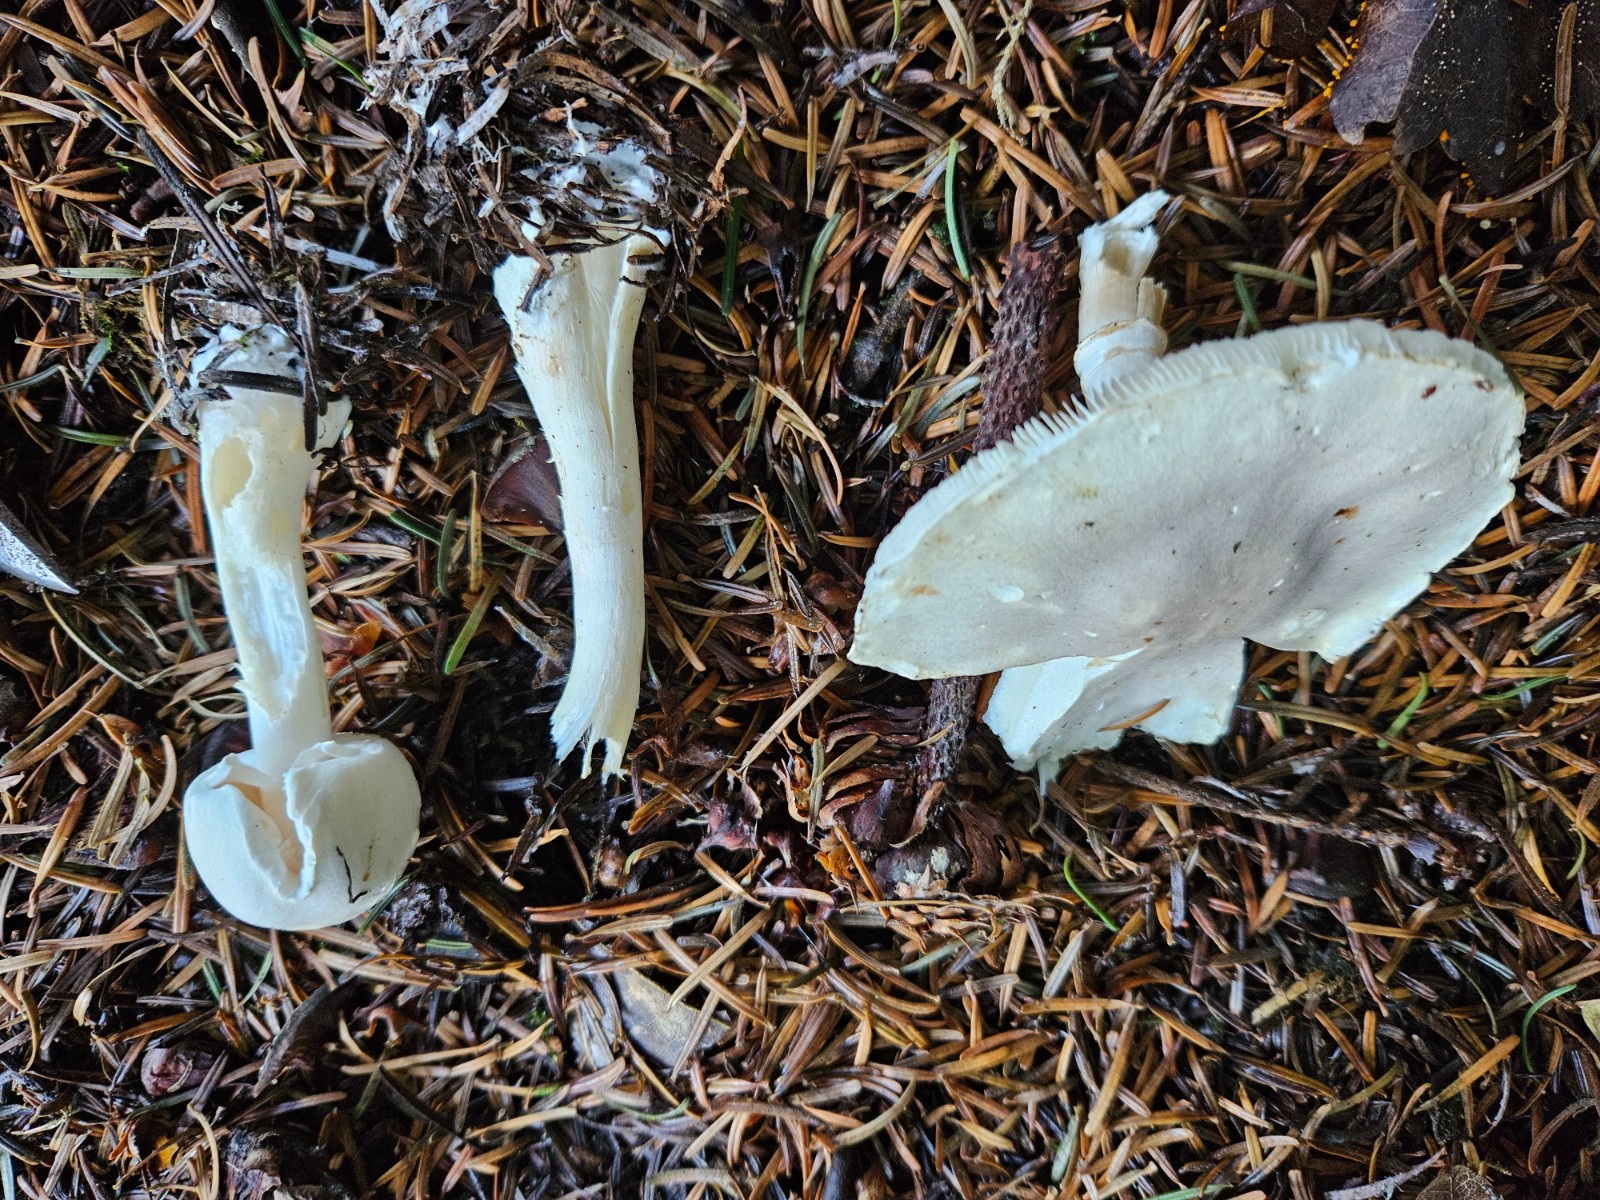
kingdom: Fungi
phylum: Basidiomycota
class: Agaricomycetes
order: Agaricales
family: Agaricaceae
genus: Leucoagaricus
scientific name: Leucoagaricus carneifolius
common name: grånende silkehat
